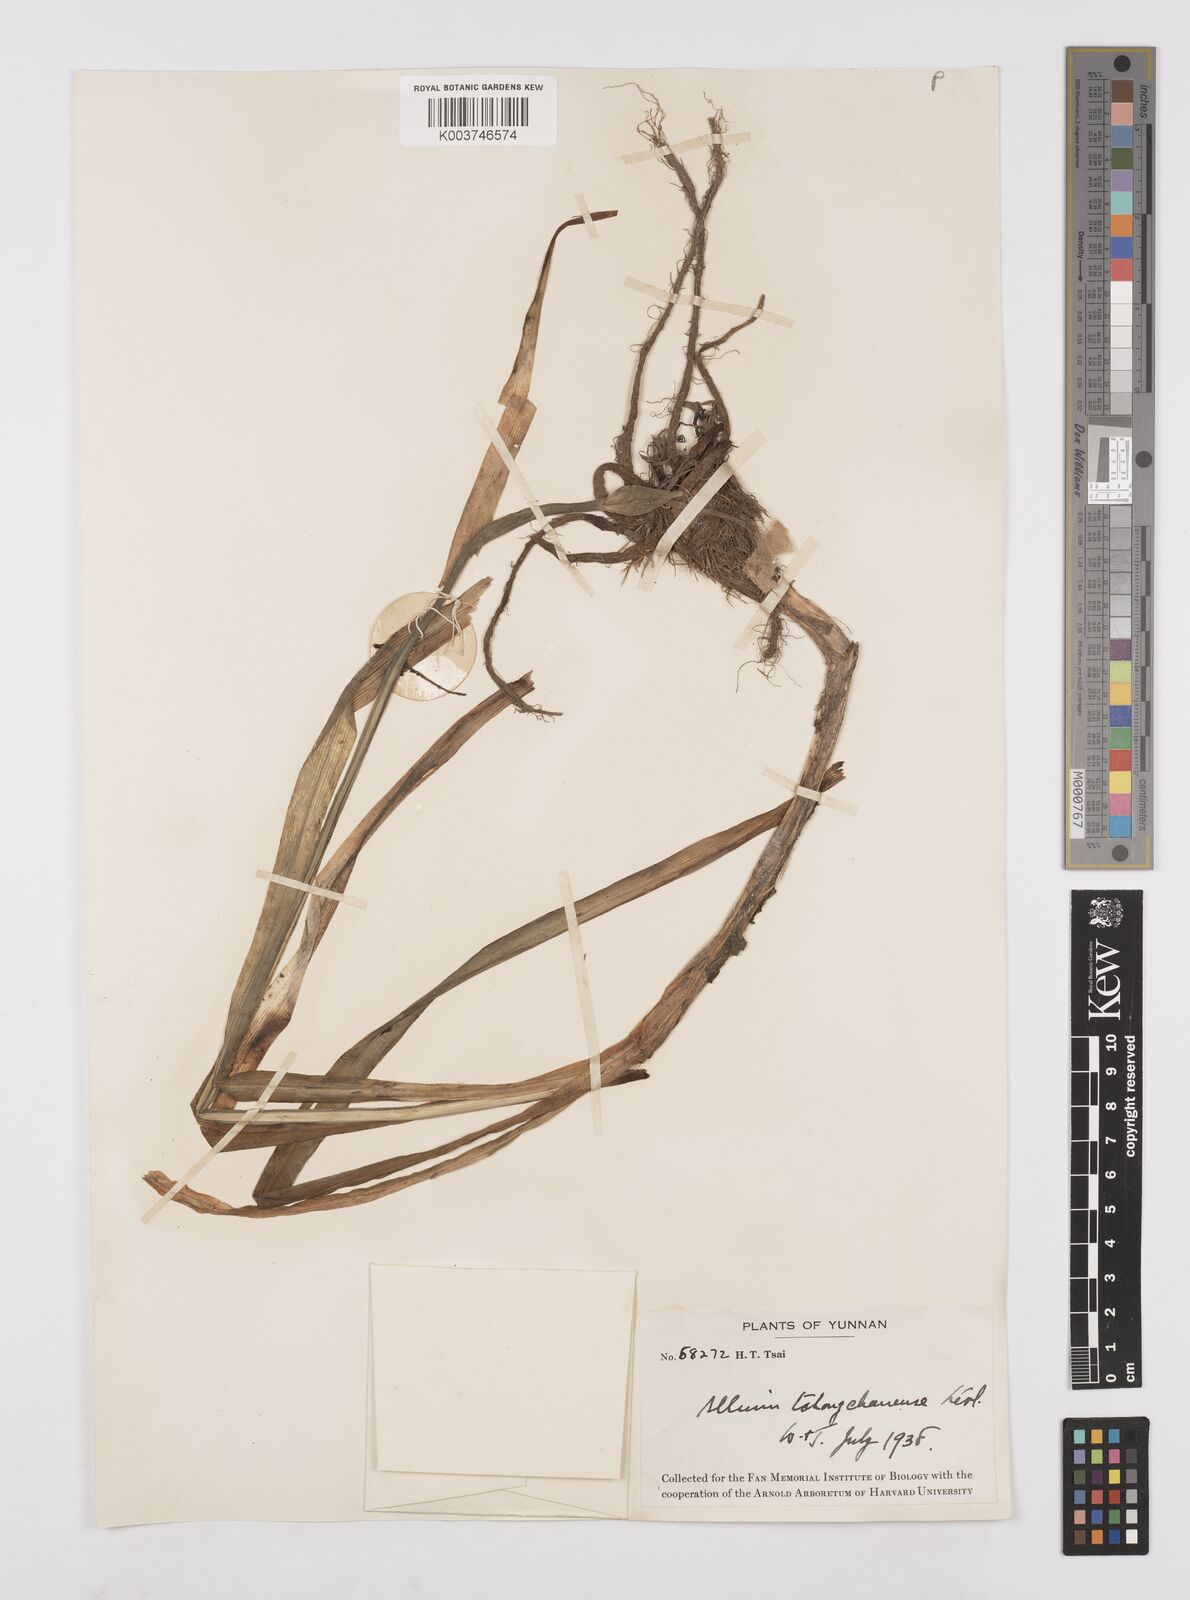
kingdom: Plantae
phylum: Tracheophyta
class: Liliopsida
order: Asparagales
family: Amaryllidaceae
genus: Allium
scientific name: Allium wallichii
